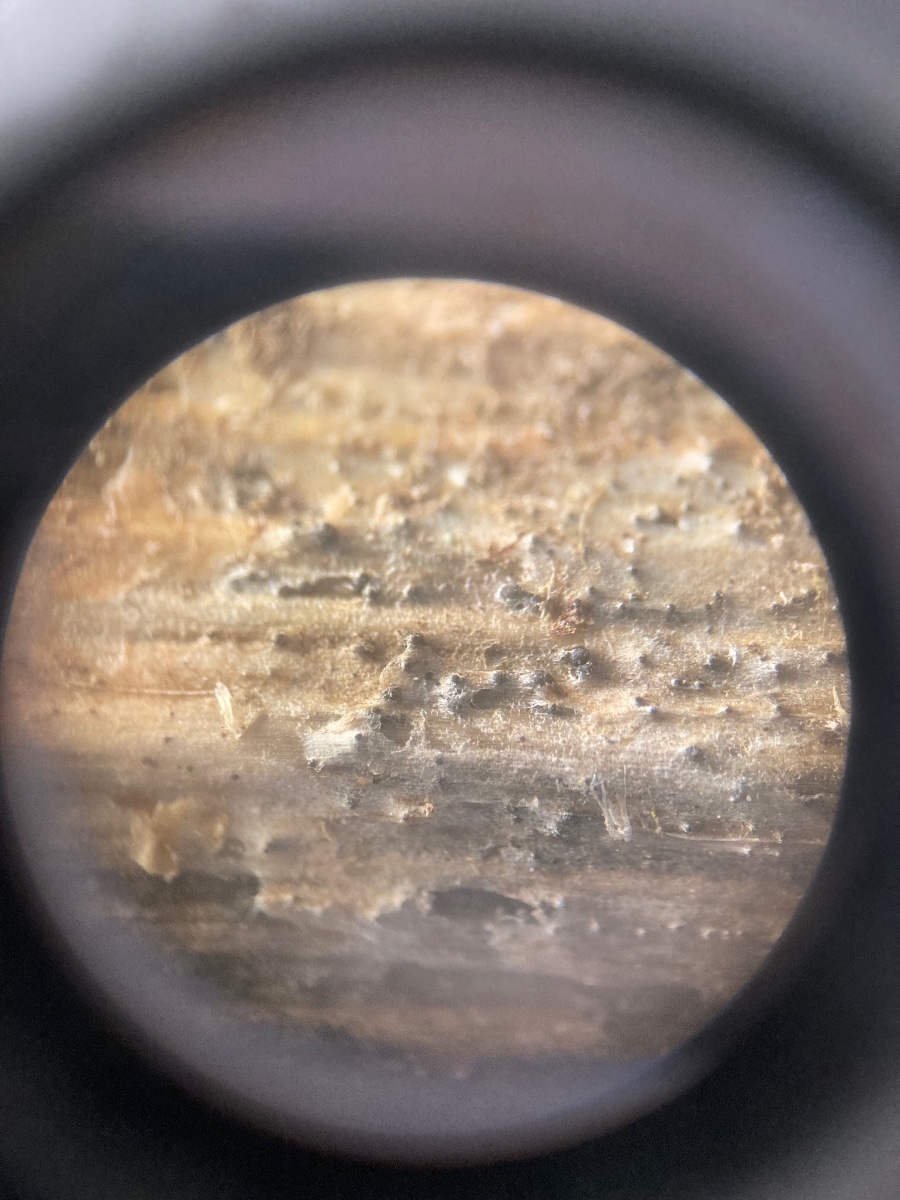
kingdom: Fungi
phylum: Ascomycota
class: Dothideomycetes
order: Pleosporales
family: Phaeosphaeriaceae
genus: Ophiobolus
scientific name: Ophiobolus acuminatus
